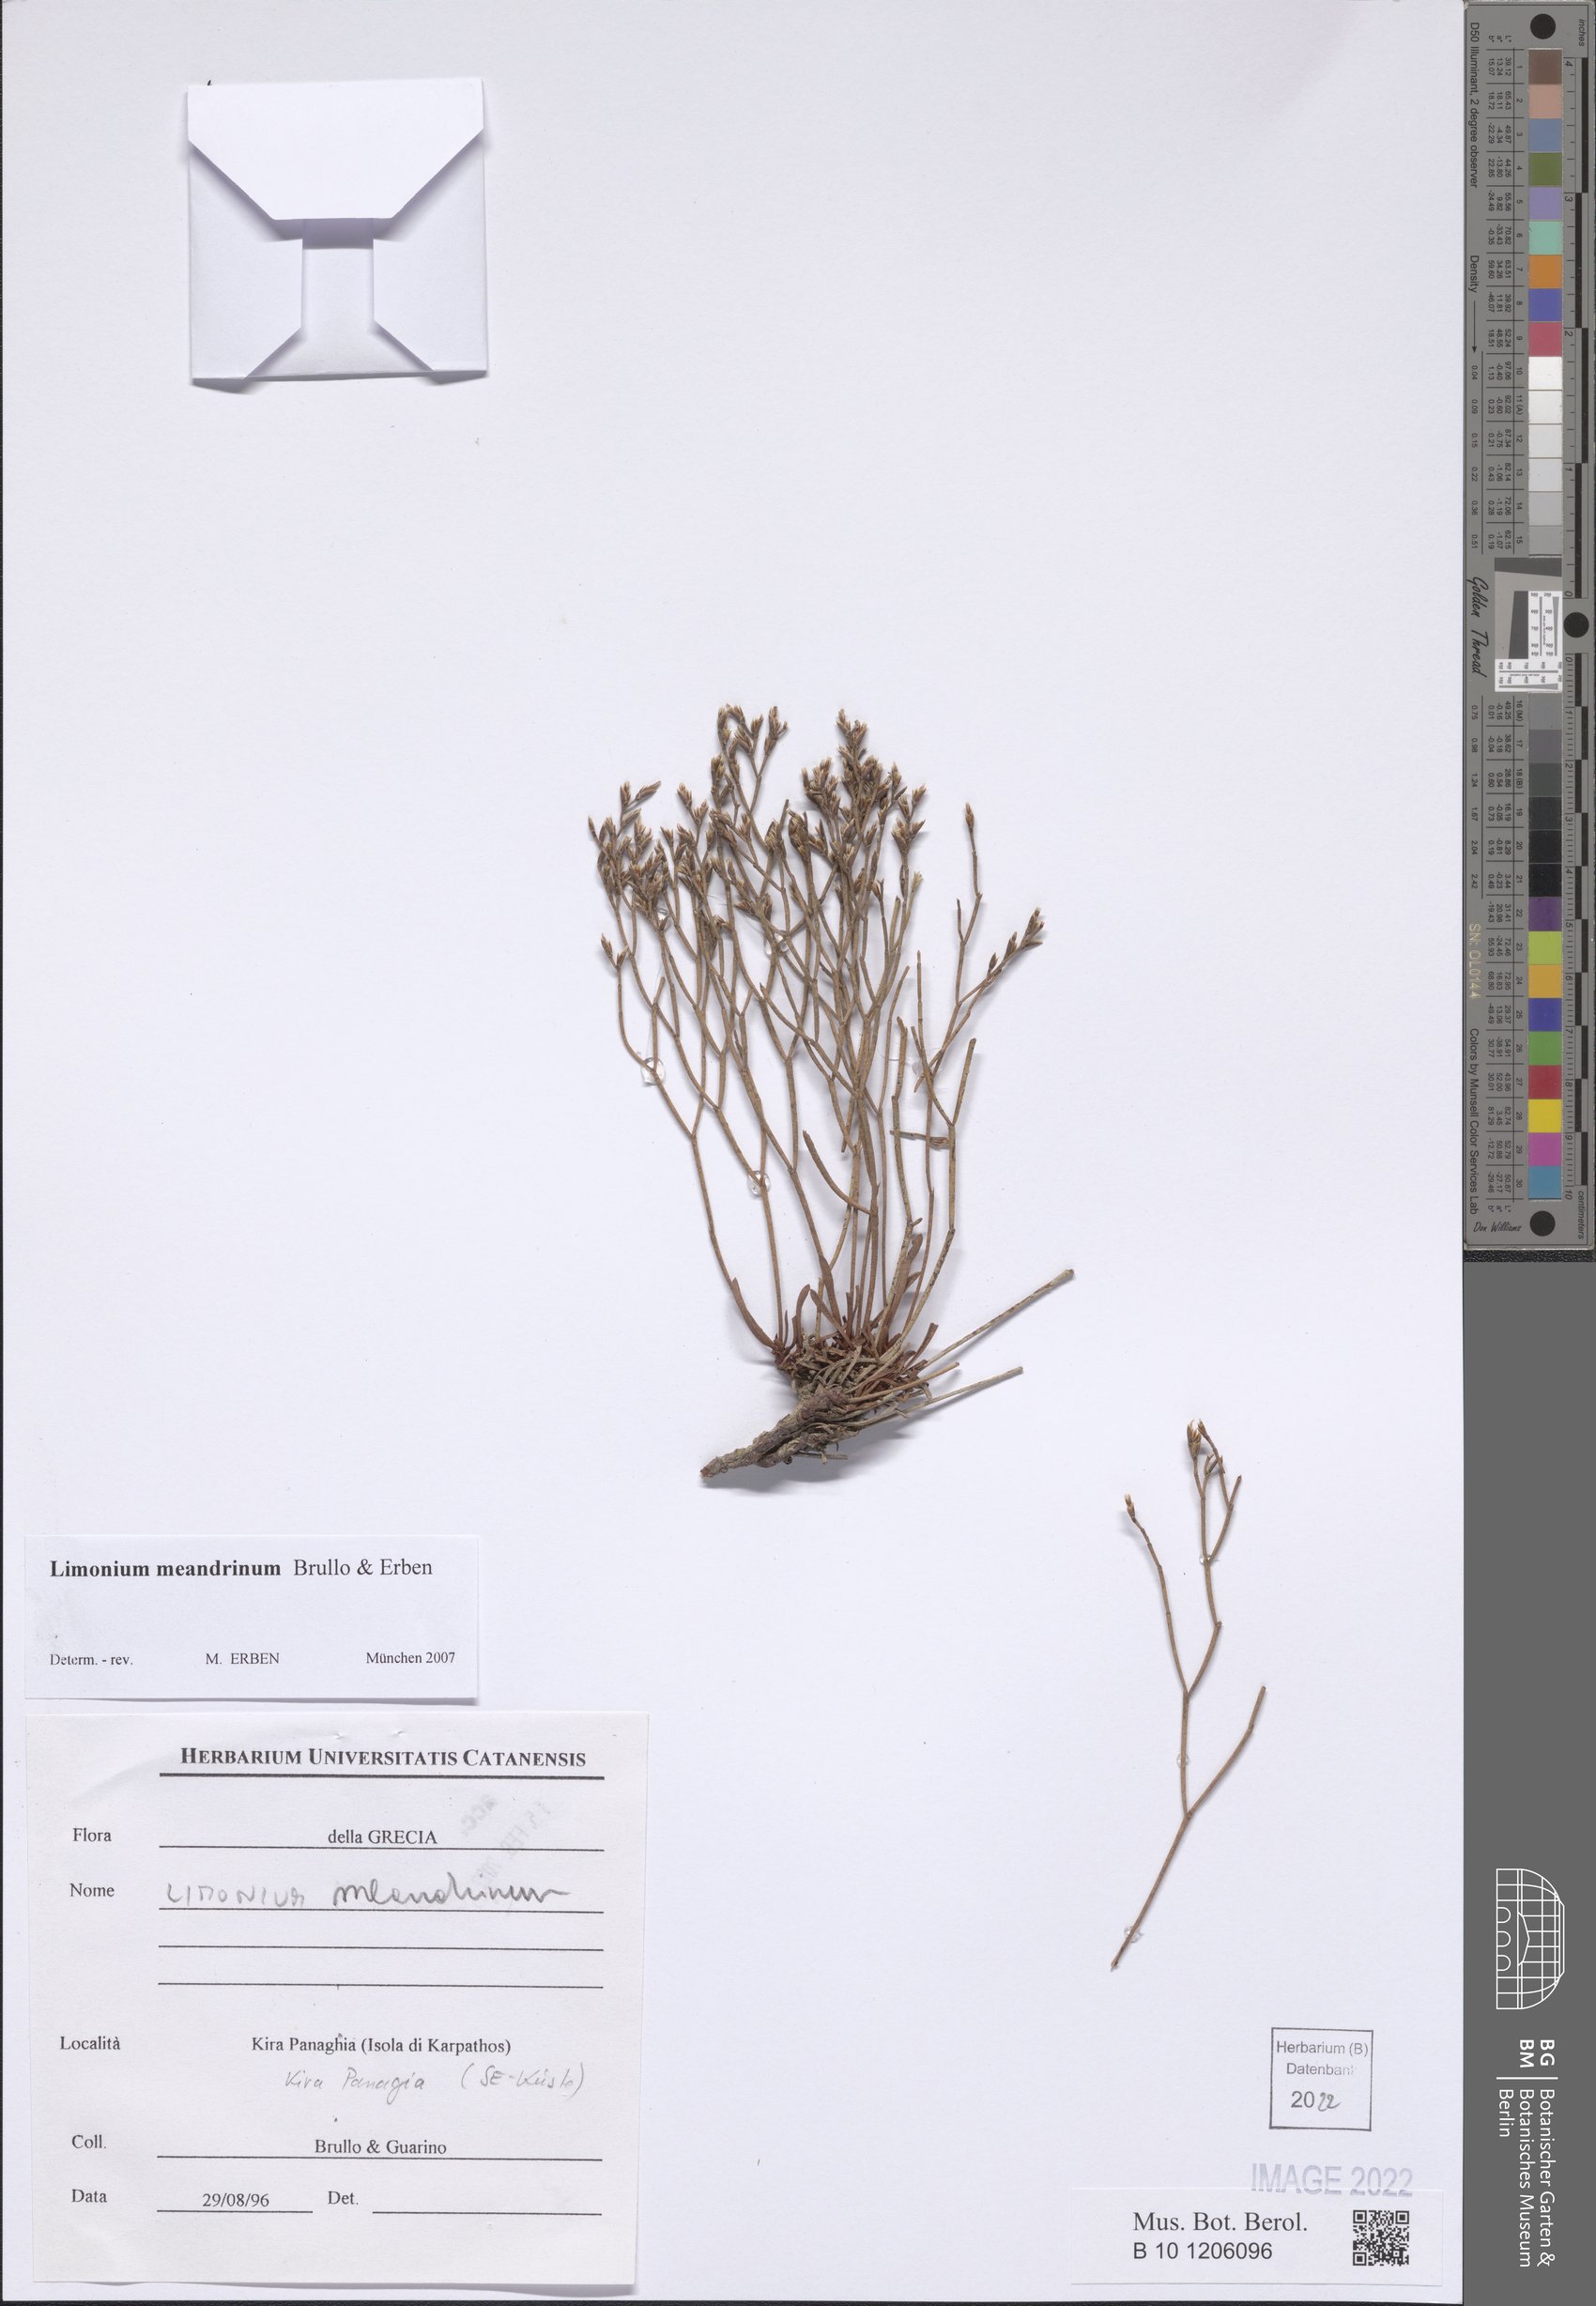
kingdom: Plantae
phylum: Tracheophyta
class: Magnoliopsida
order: Caryophyllales
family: Plumbaginaceae
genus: Limonium
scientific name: Limonium meandrinum
